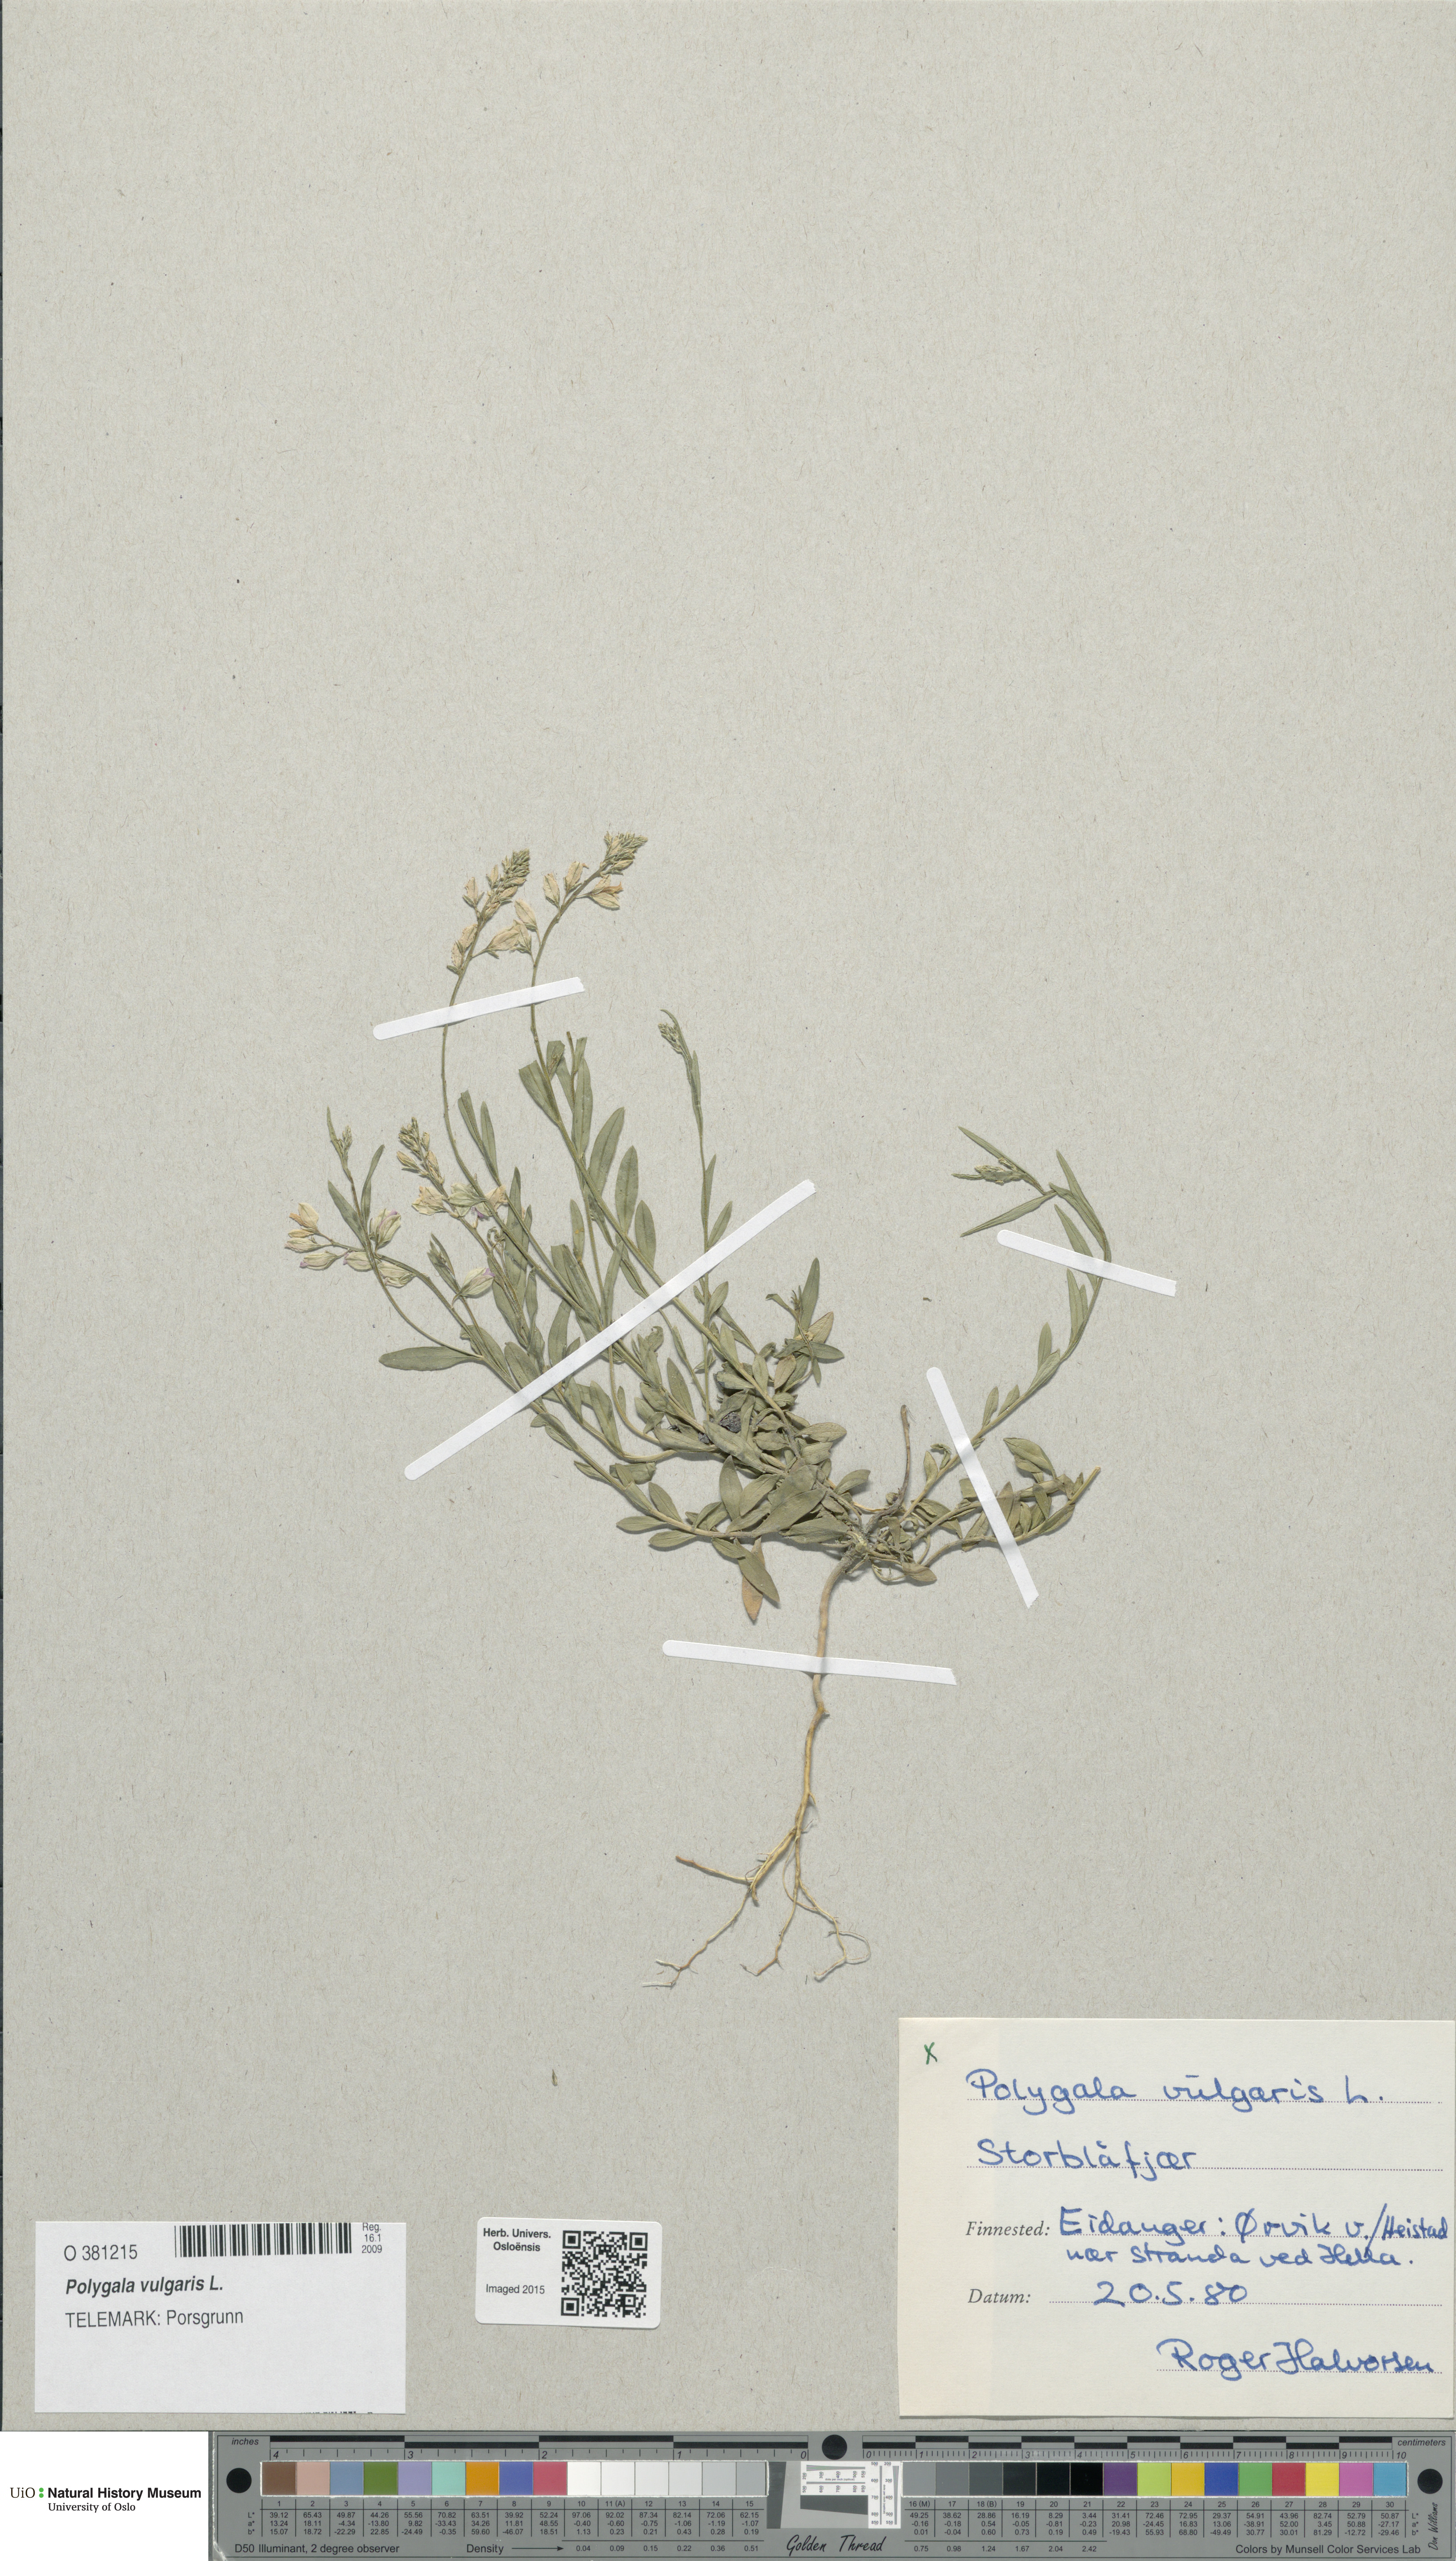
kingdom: Plantae
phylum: Tracheophyta
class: Magnoliopsida
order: Fabales
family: Polygalaceae
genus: Polygala
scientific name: Polygala vulgaris
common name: Common milkwort
